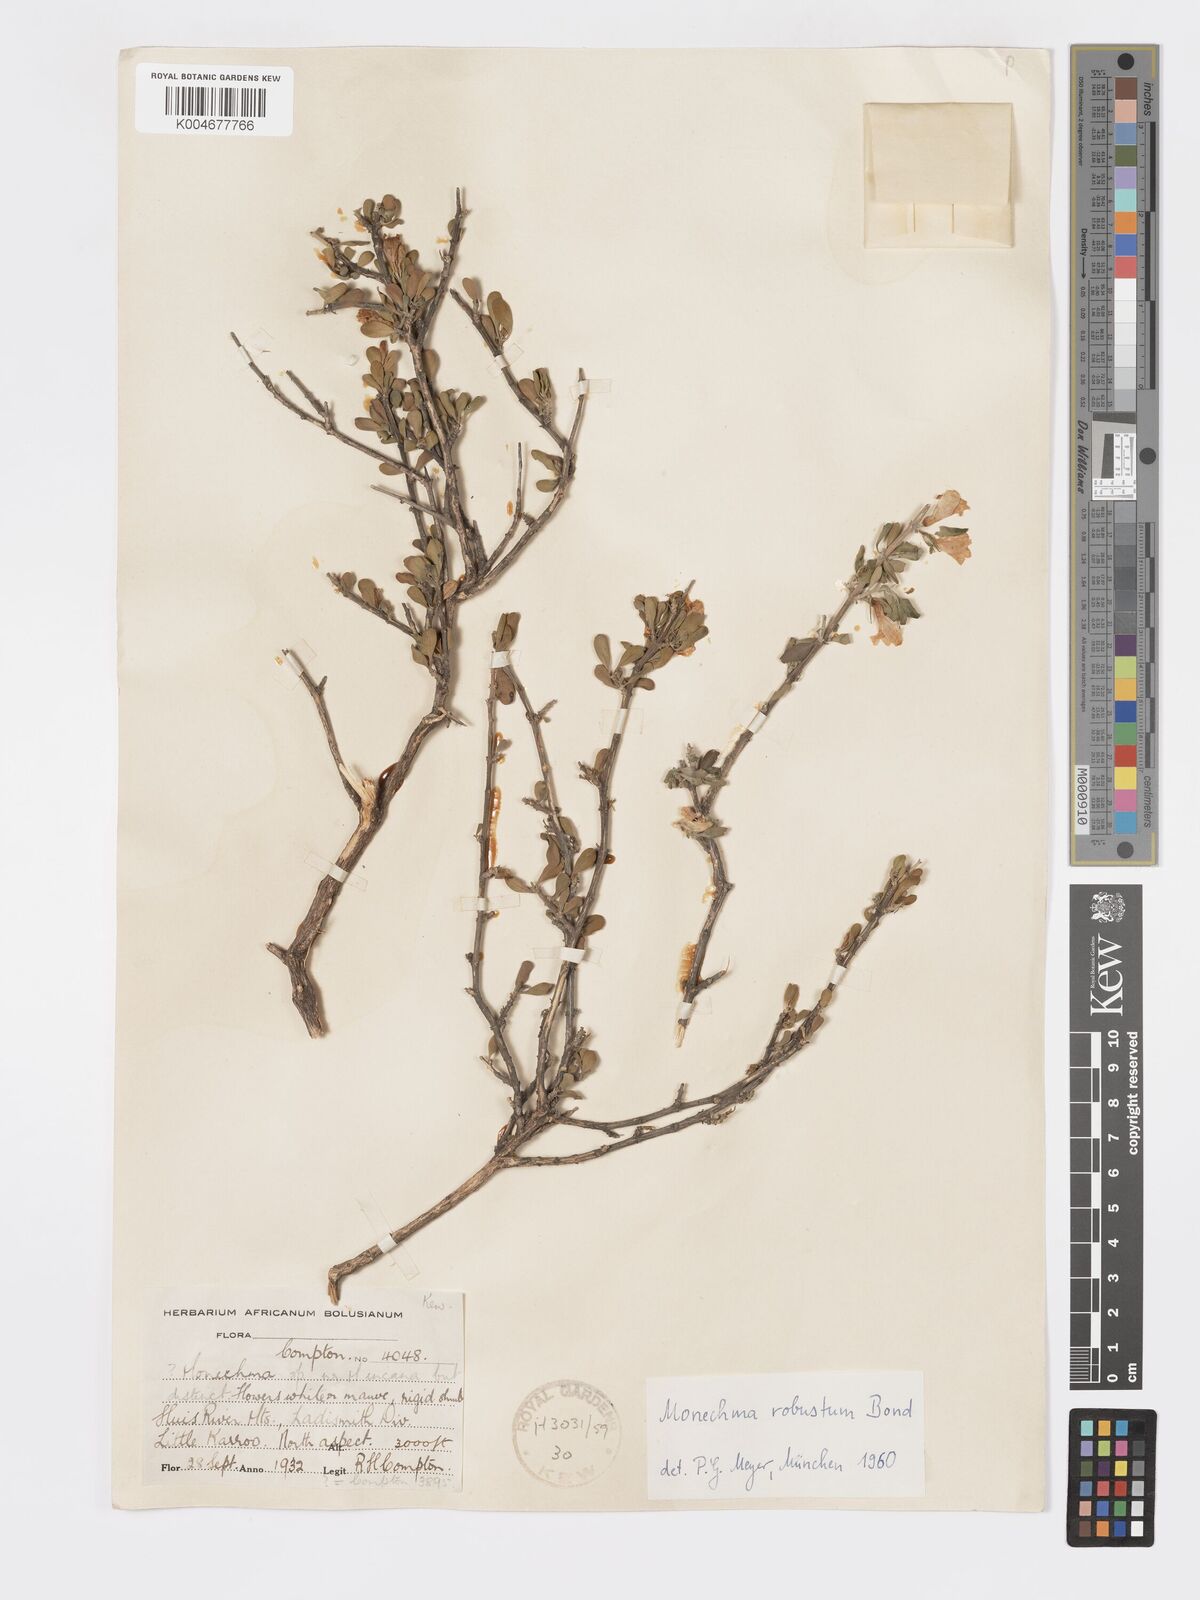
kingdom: Plantae
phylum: Tracheophyta
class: Magnoliopsida
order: Lamiales
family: Acanthaceae
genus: Pogonospermum
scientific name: Pogonospermum
